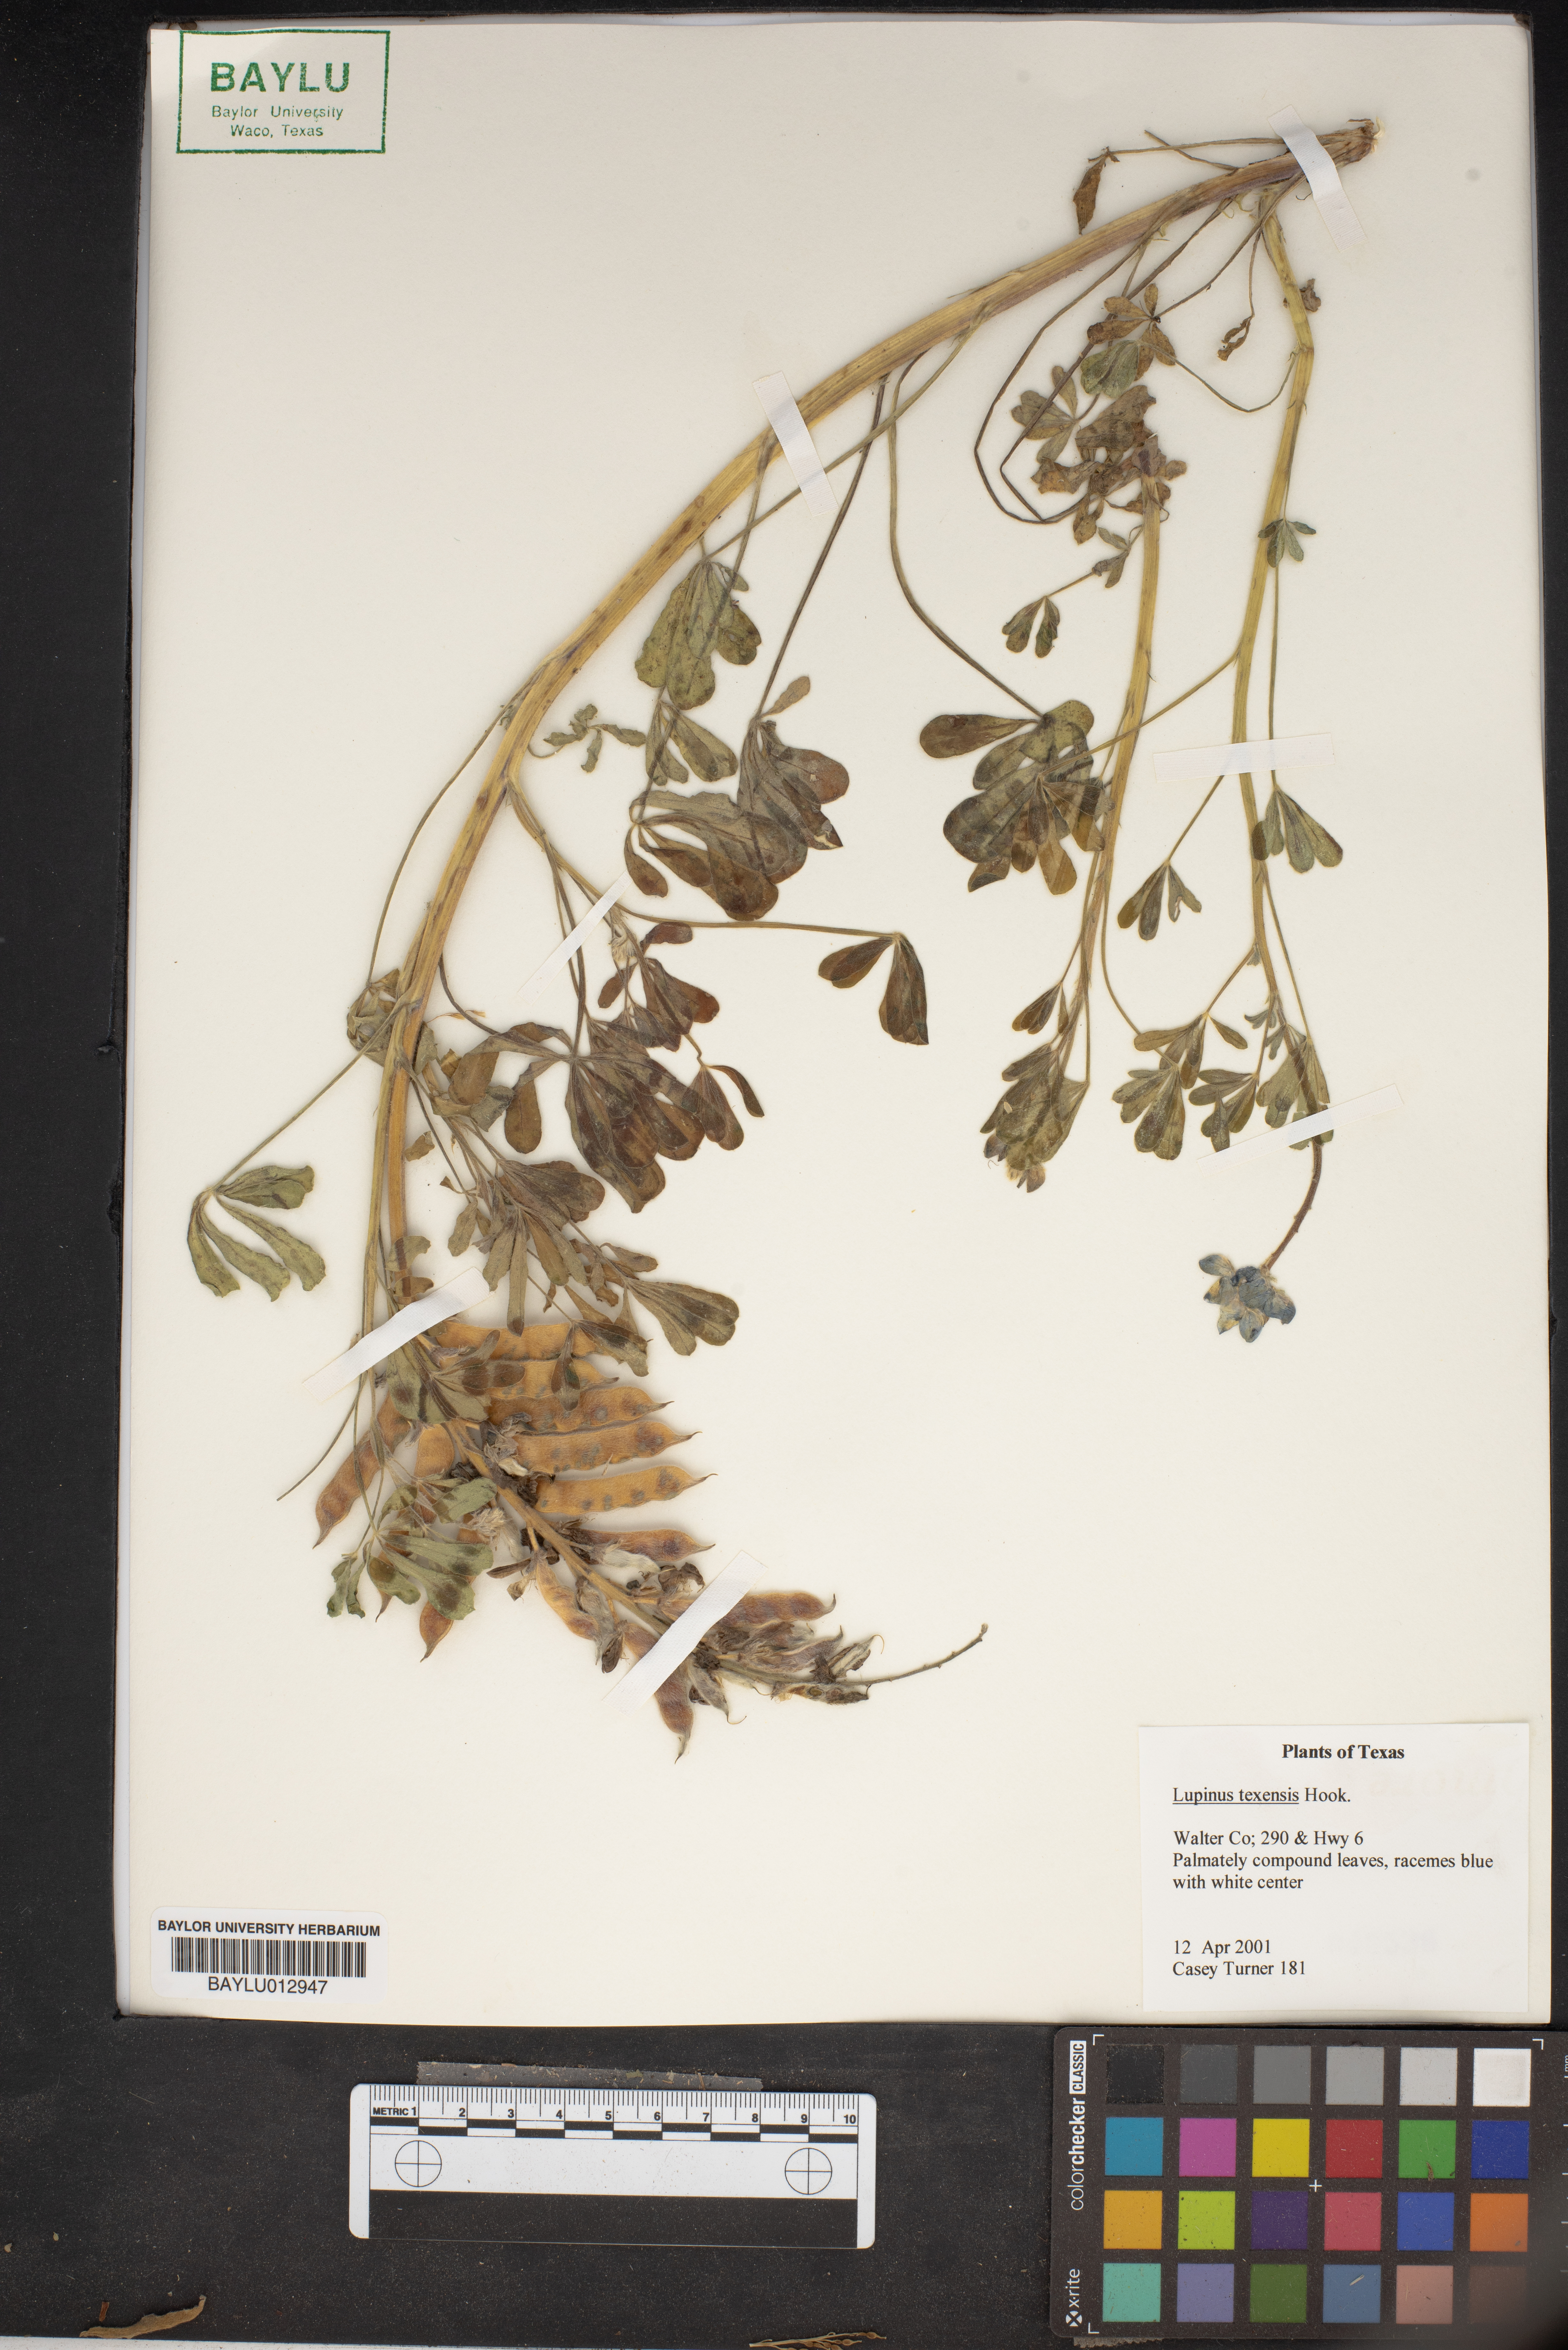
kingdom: Plantae
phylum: Tracheophyta
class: Magnoliopsida
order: Fabales
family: Fabaceae
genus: Lupinus
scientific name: Lupinus texensis
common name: Texas bluebonnet
